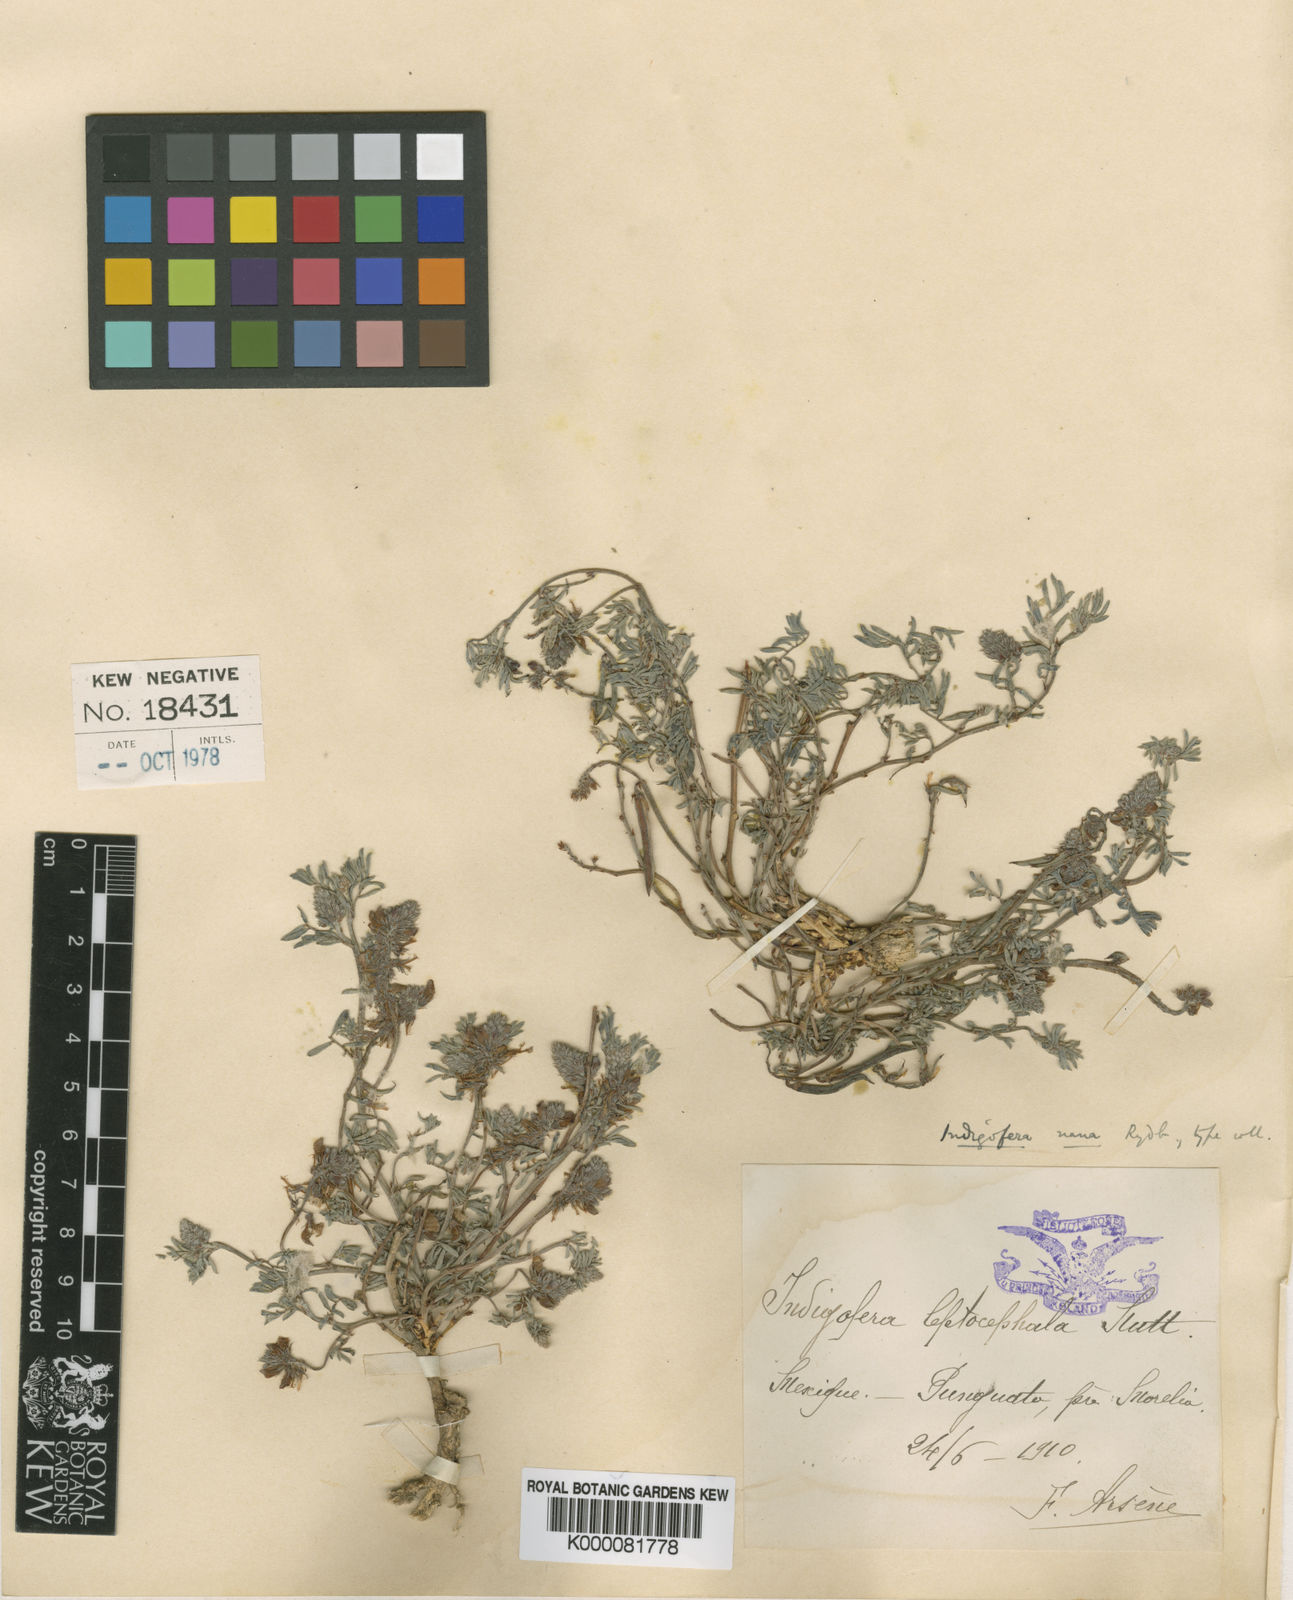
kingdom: Plantae
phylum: Tracheophyta
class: Magnoliopsida
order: Fabales
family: Fabaceae
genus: Indigofera
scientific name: Indigofera miniata
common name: Coast indigo
